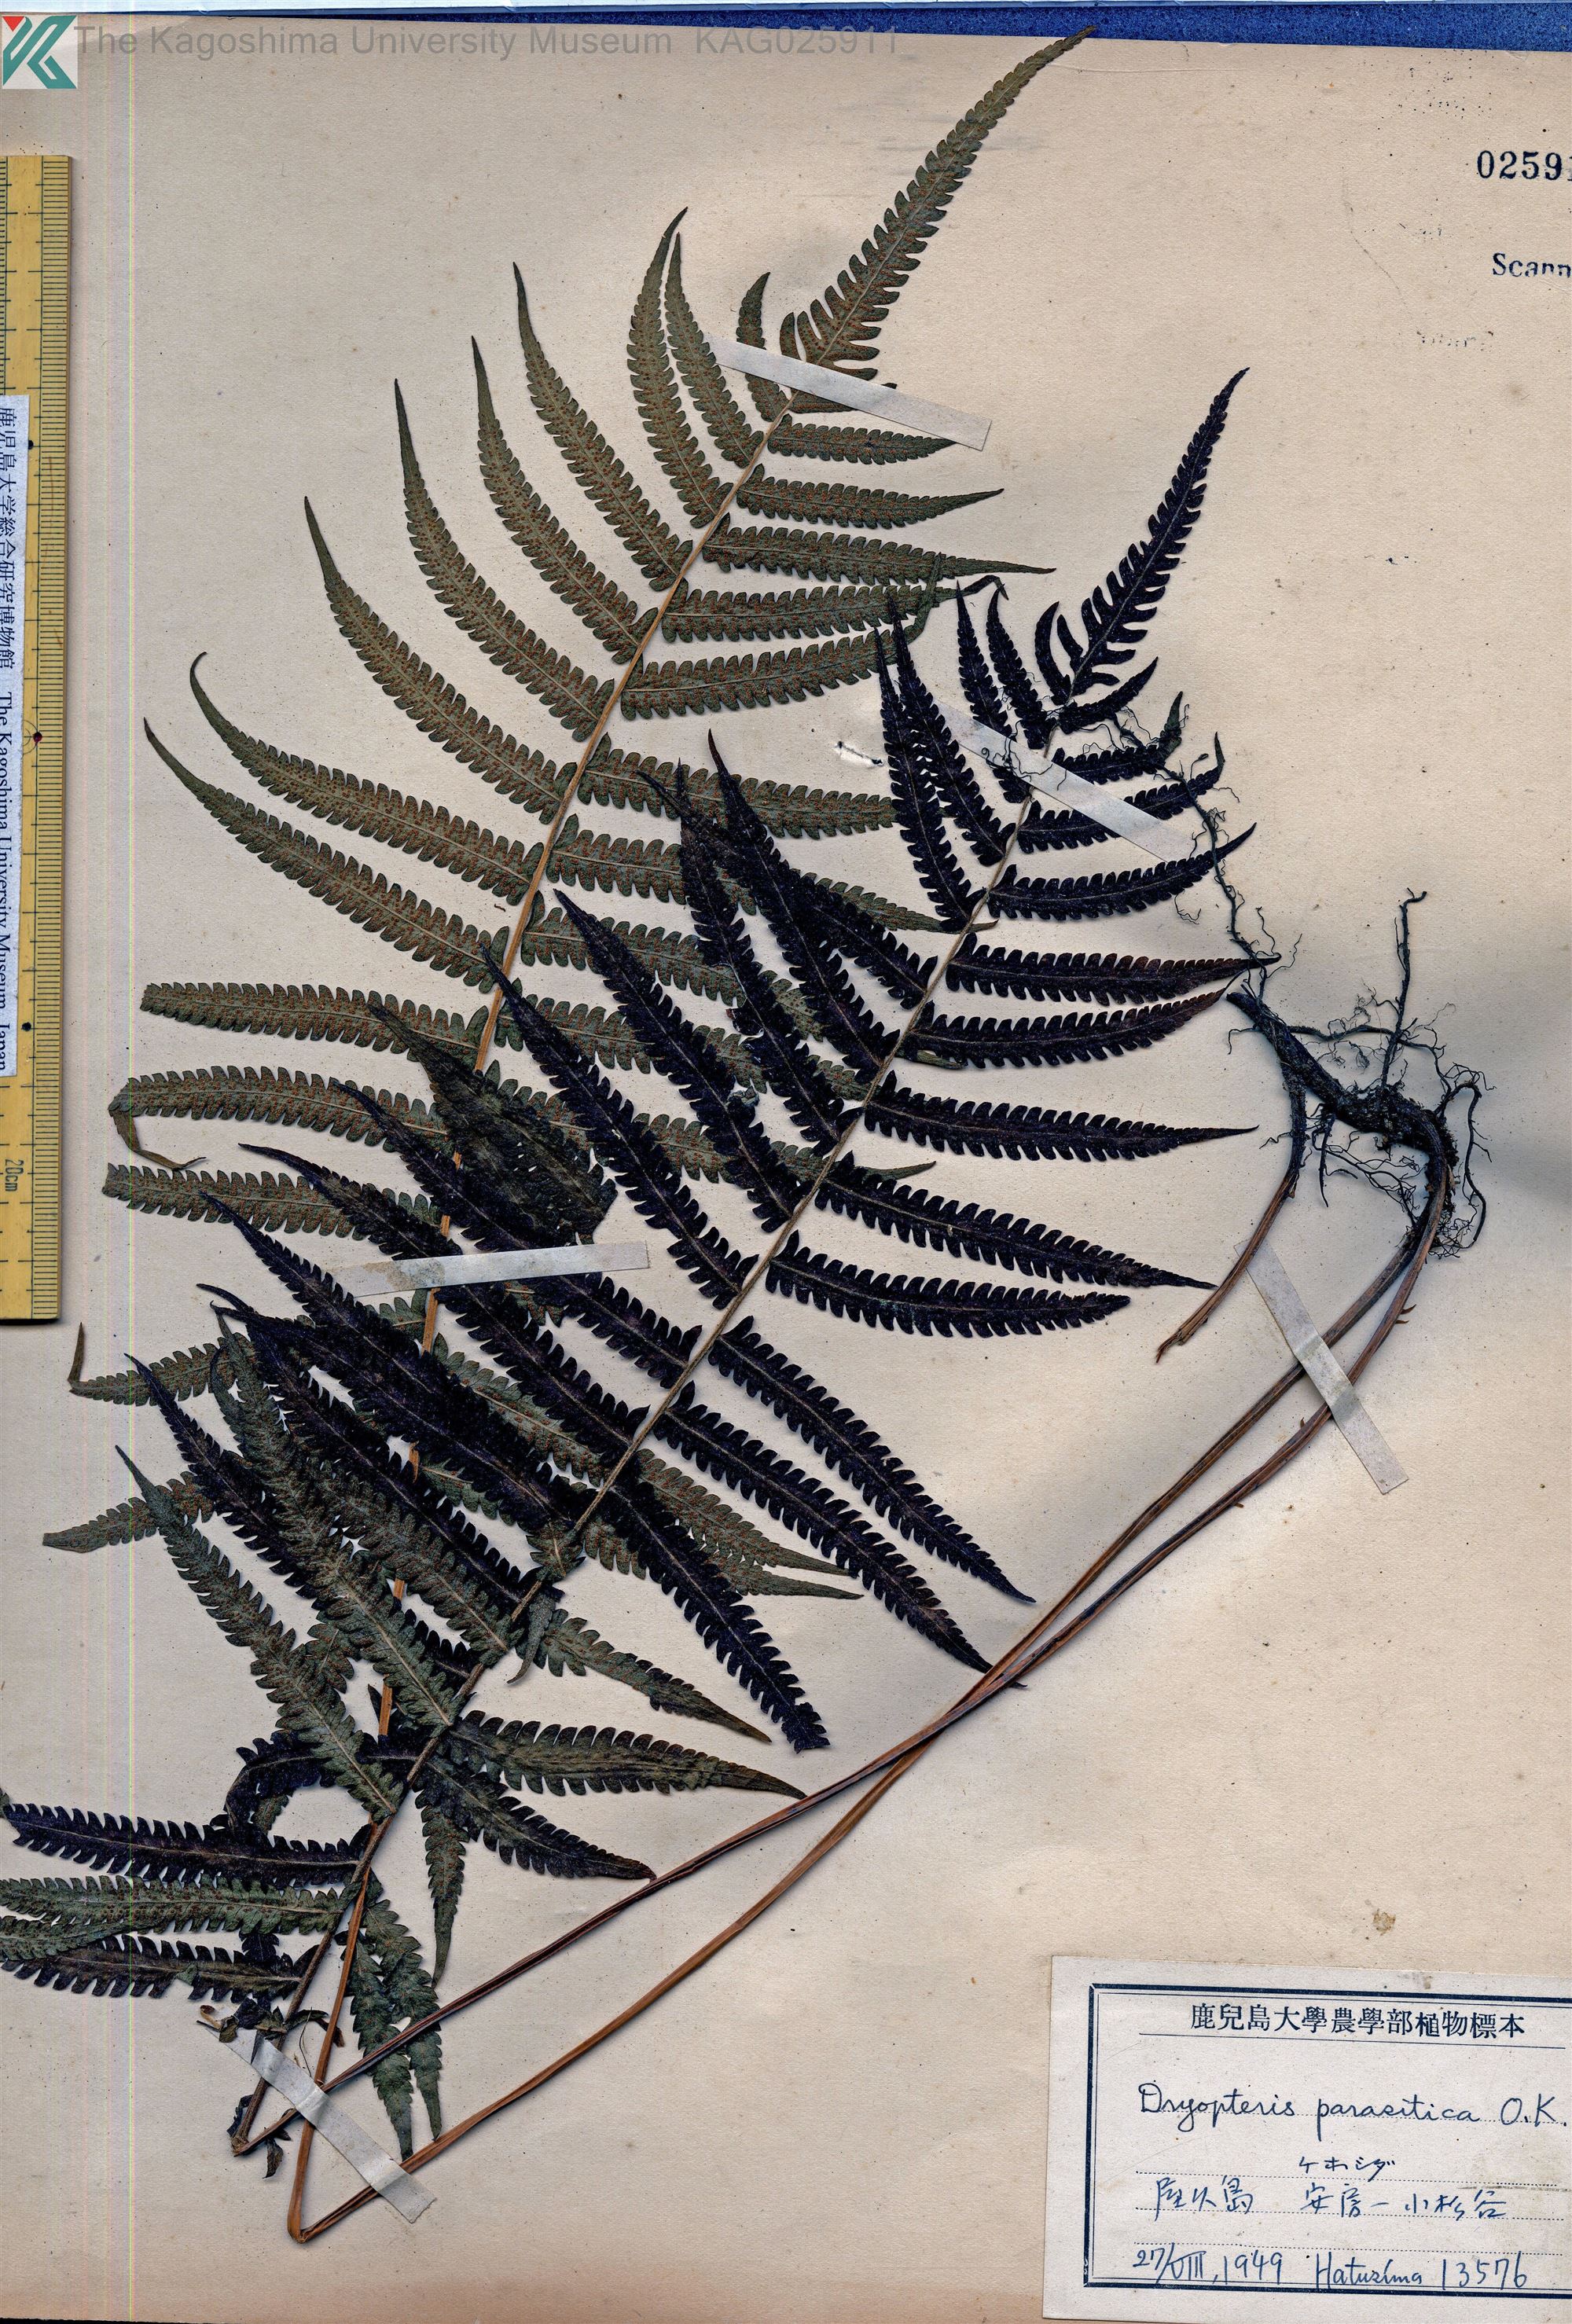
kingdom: Plantae
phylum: Tracheophyta
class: Polypodiopsida
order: Polypodiales
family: Thelypteridaceae
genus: Christella
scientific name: Christella parasitica
